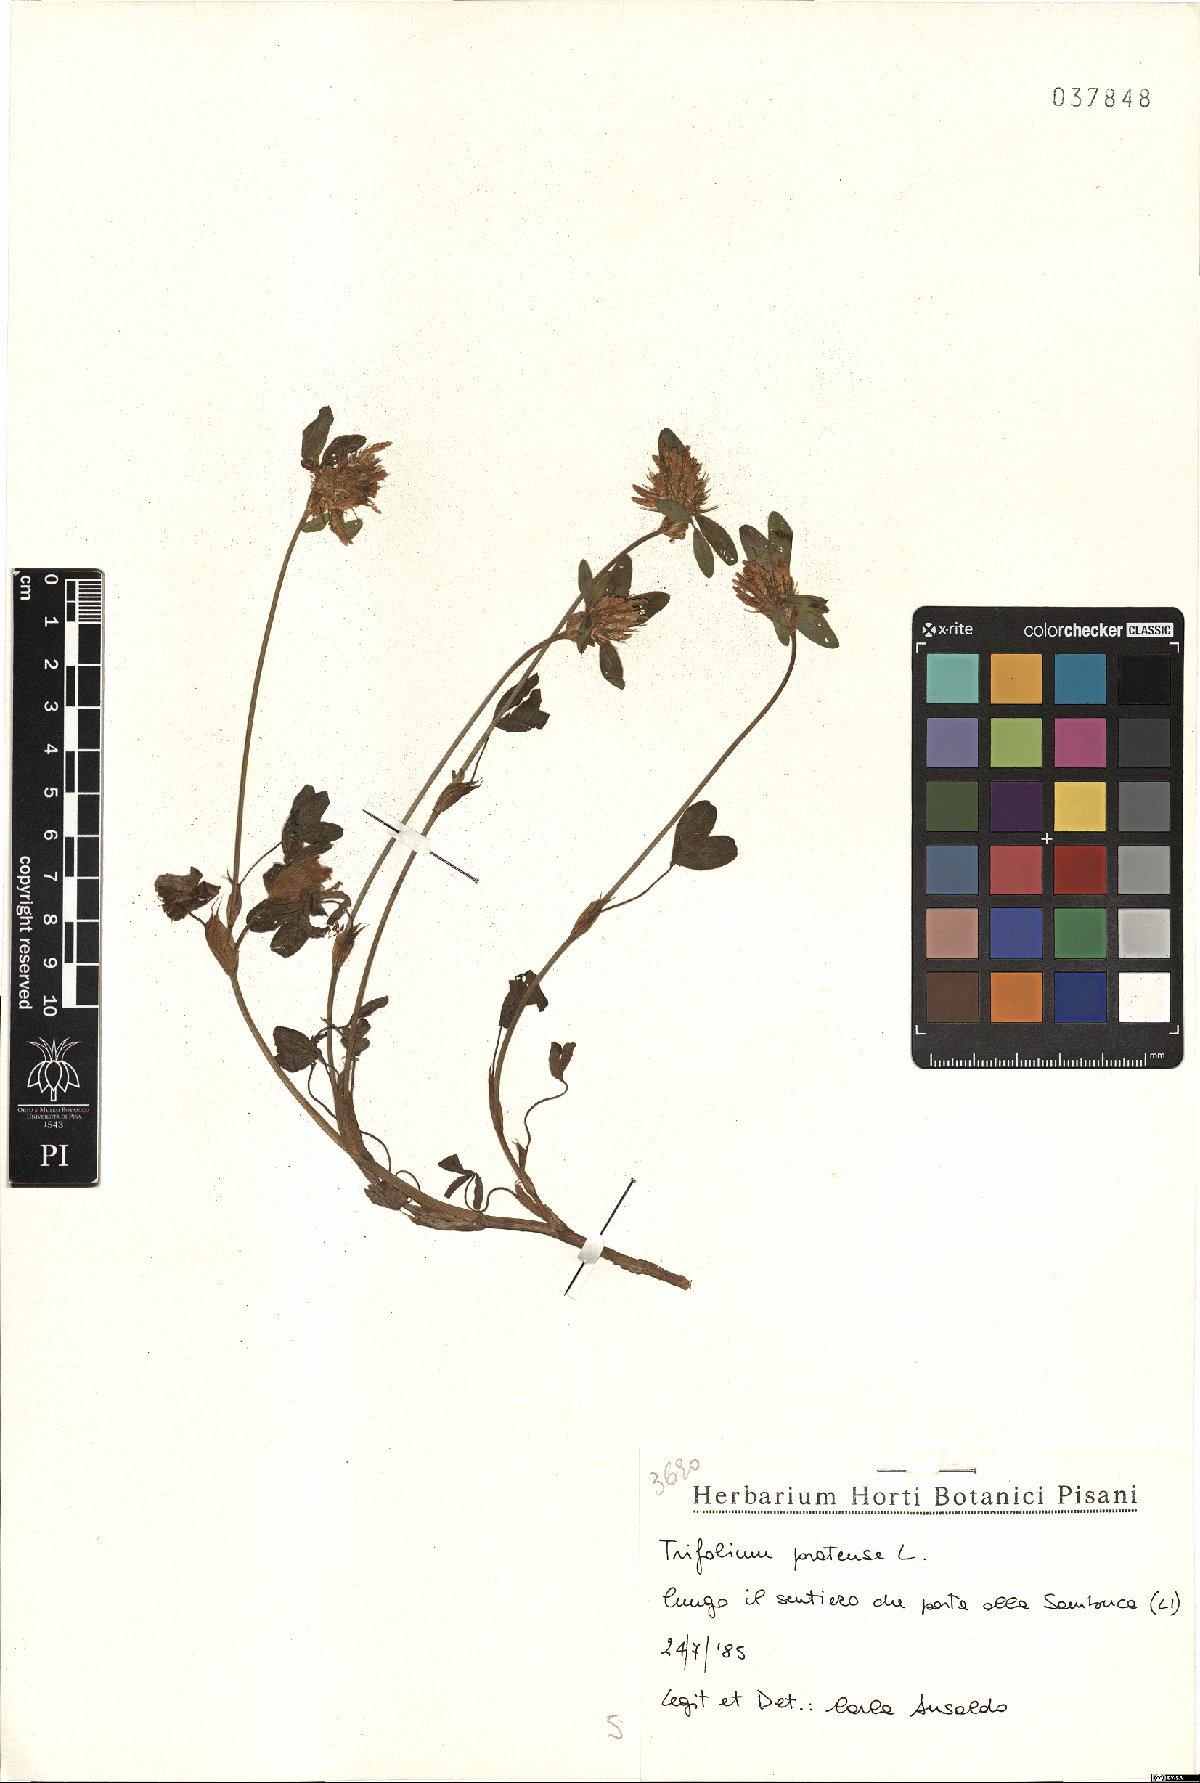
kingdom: Plantae
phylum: Tracheophyta
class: Magnoliopsida
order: Fabales
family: Fabaceae
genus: Trifolium
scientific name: Trifolium pratense
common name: Red clover
